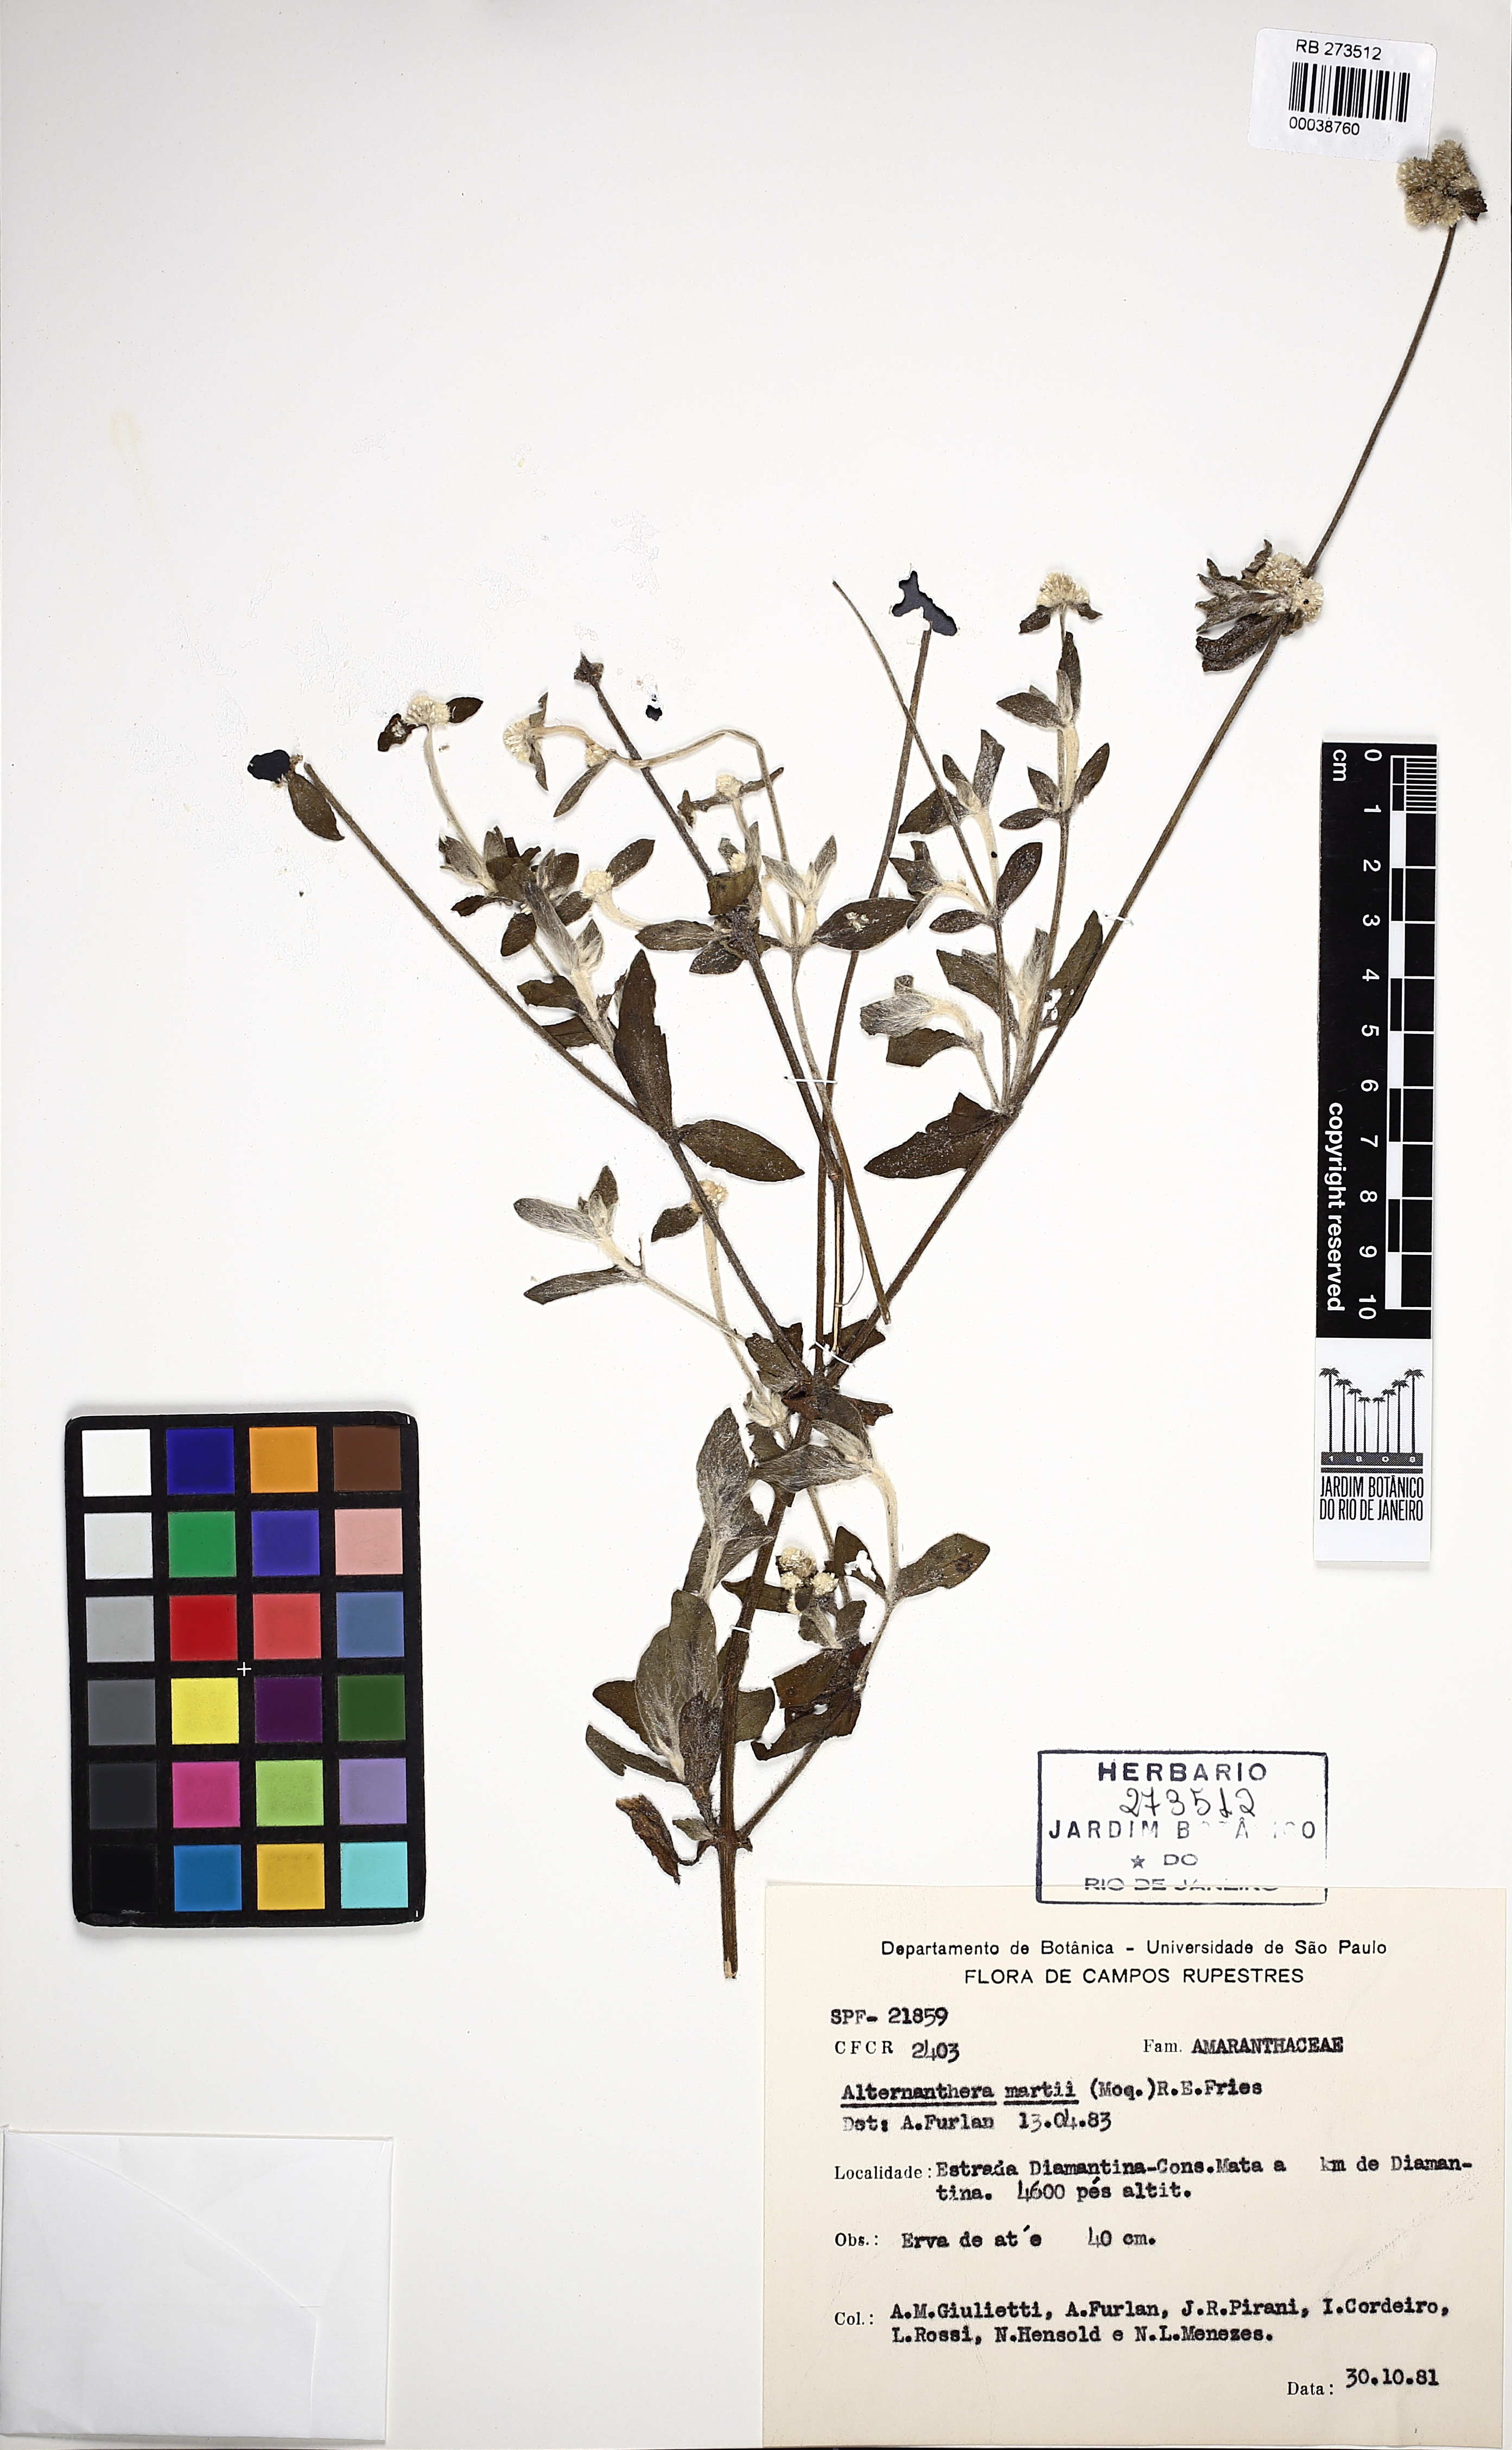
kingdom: Plantae
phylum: Tracheophyta
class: Magnoliopsida
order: Caryophyllales
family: Amaranthaceae
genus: Alternanthera
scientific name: Alternanthera martii
